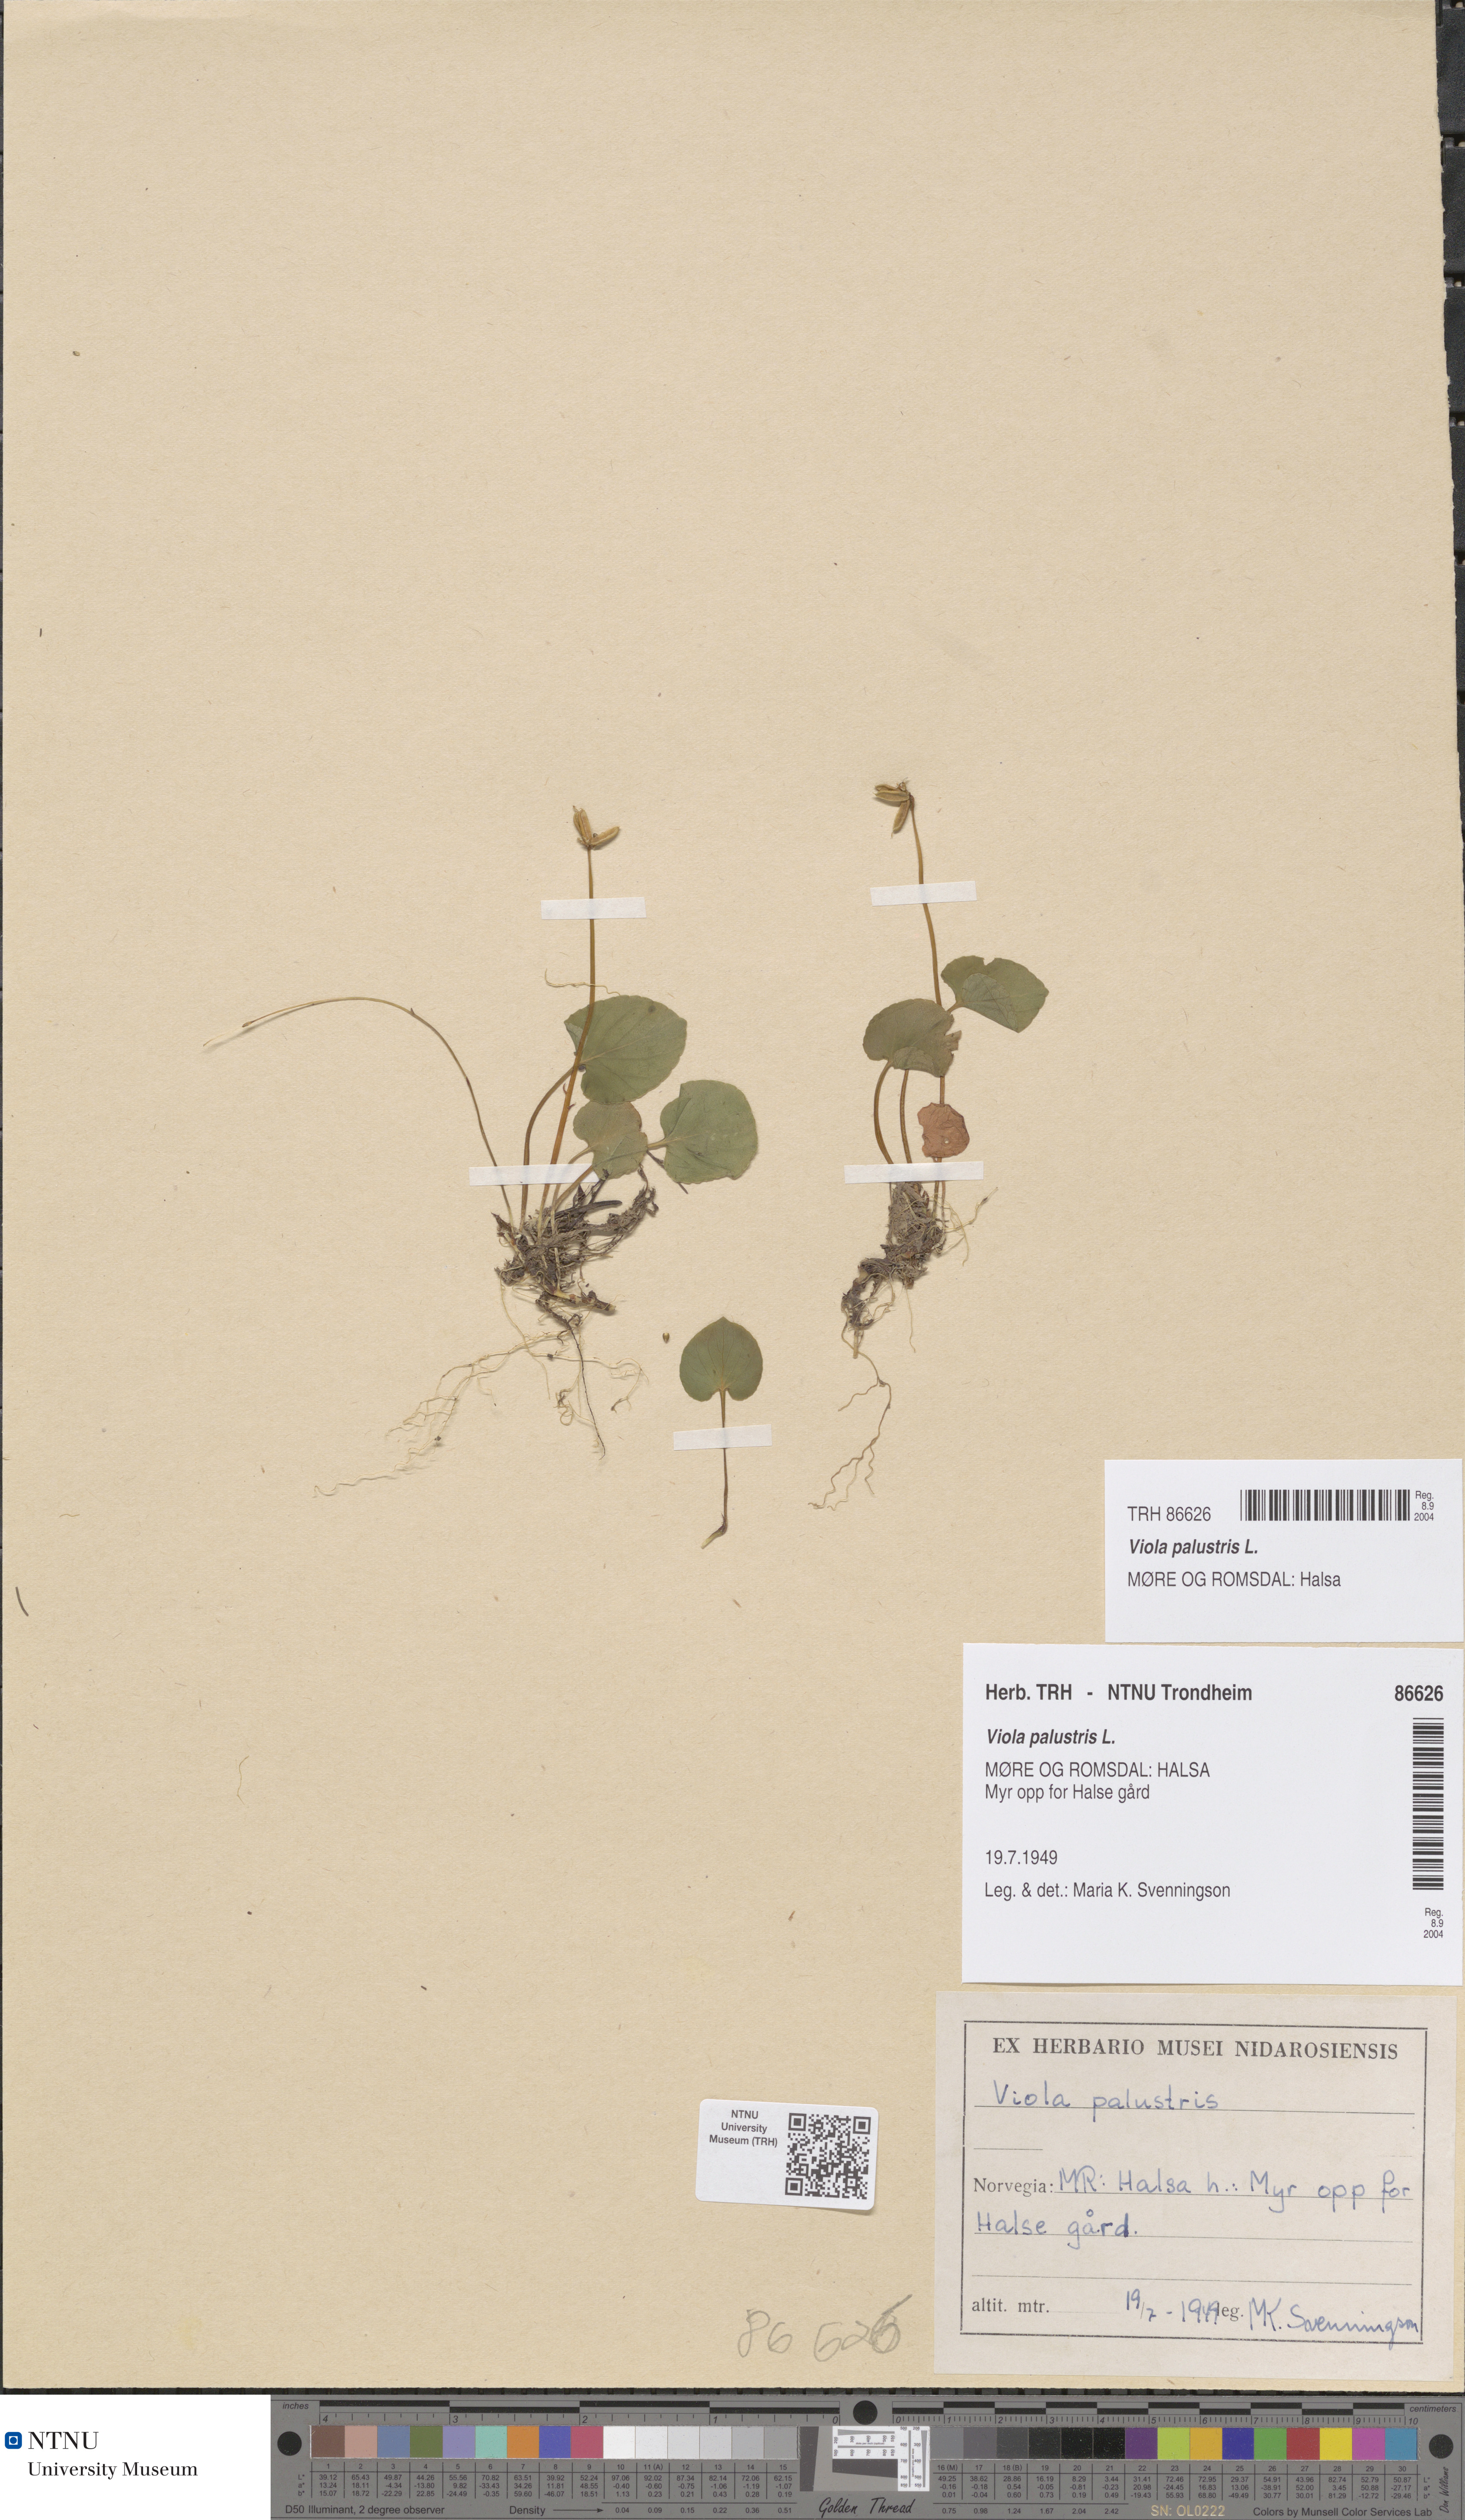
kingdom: Plantae
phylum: Tracheophyta
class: Magnoliopsida
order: Malpighiales
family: Violaceae
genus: Viola
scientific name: Viola palustris
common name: Marsh violet
